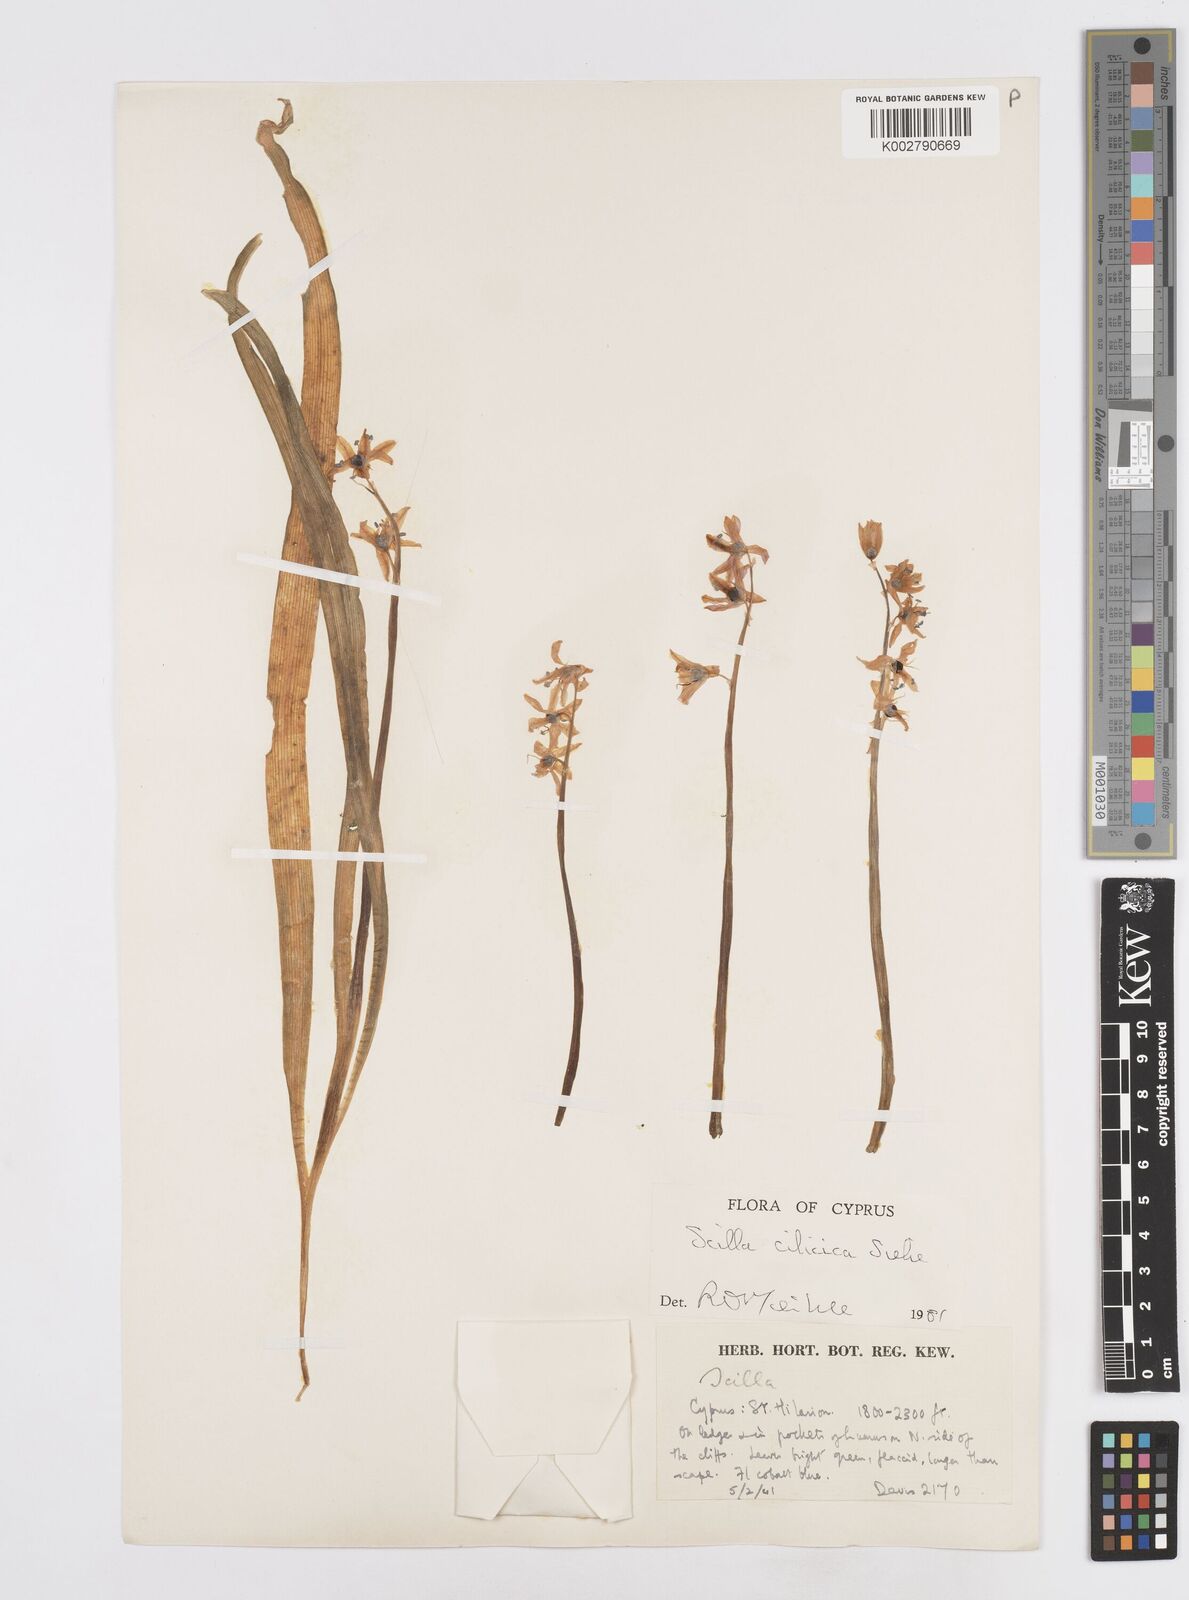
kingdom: Plantae
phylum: Tracheophyta
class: Liliopsida
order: Asparagales
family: Asparagaceae
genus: Scilla
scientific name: Scilla siberica
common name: Siberian squill
